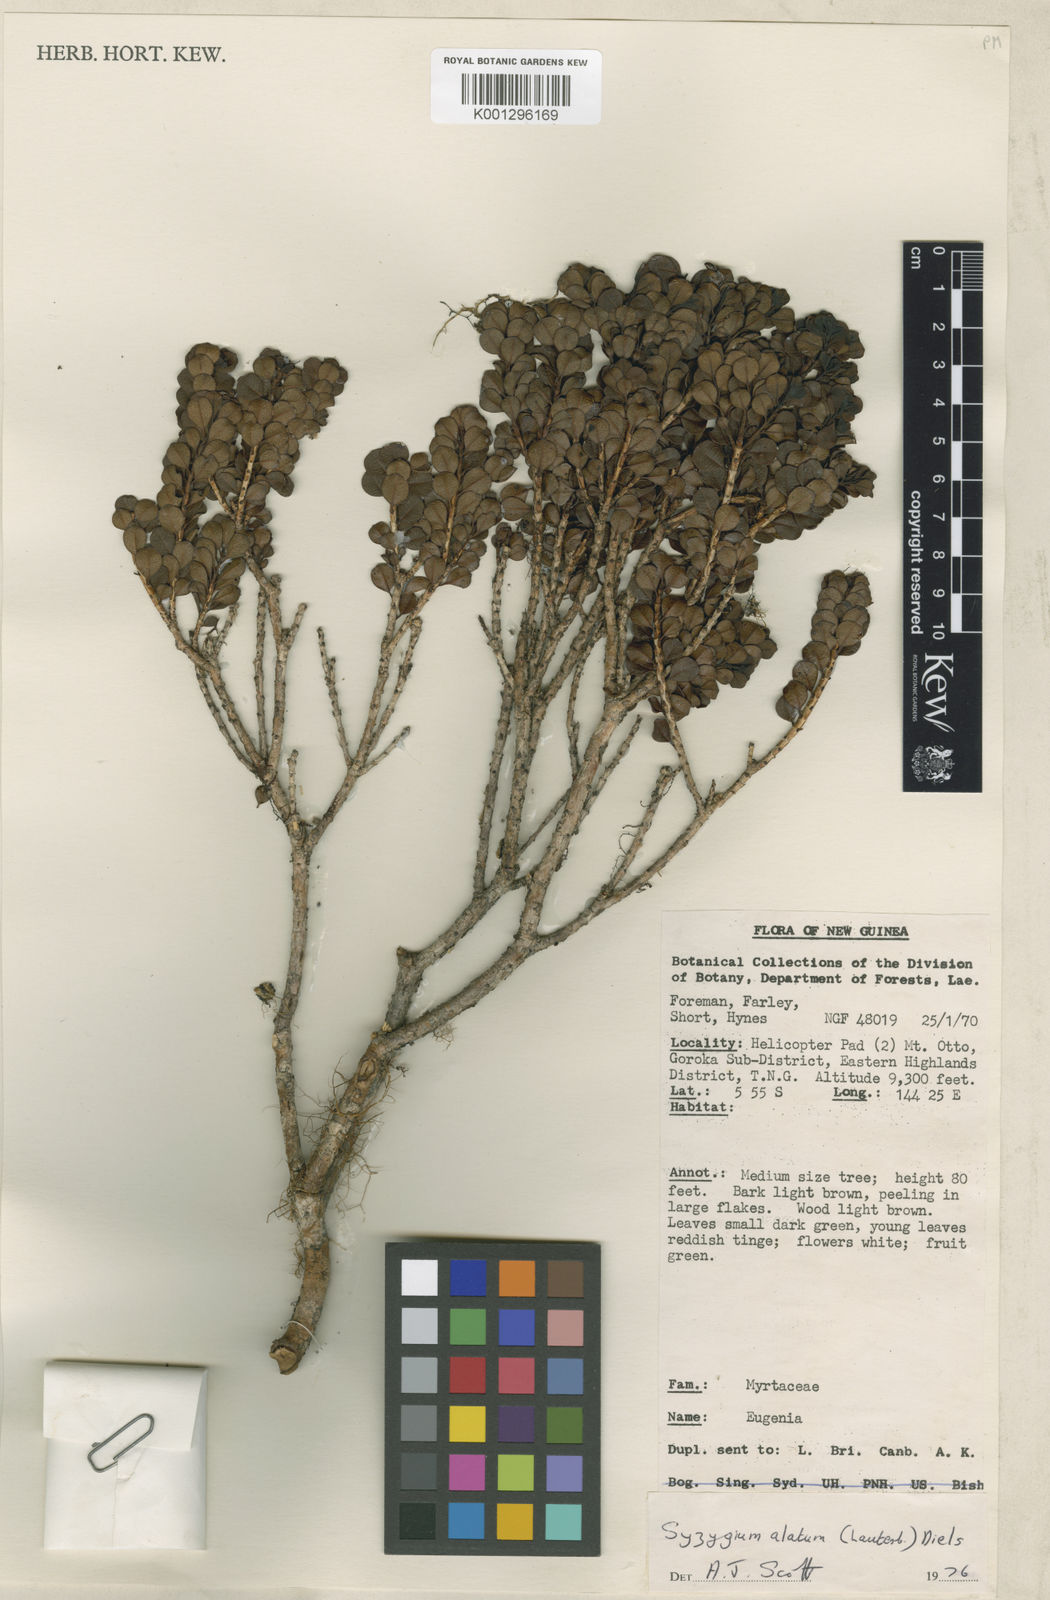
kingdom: Plantae
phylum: Tracheophyta
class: Magnoliopsida
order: Myrtales
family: Myrtaceae
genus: Syzygium
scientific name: Syzygium alatum
